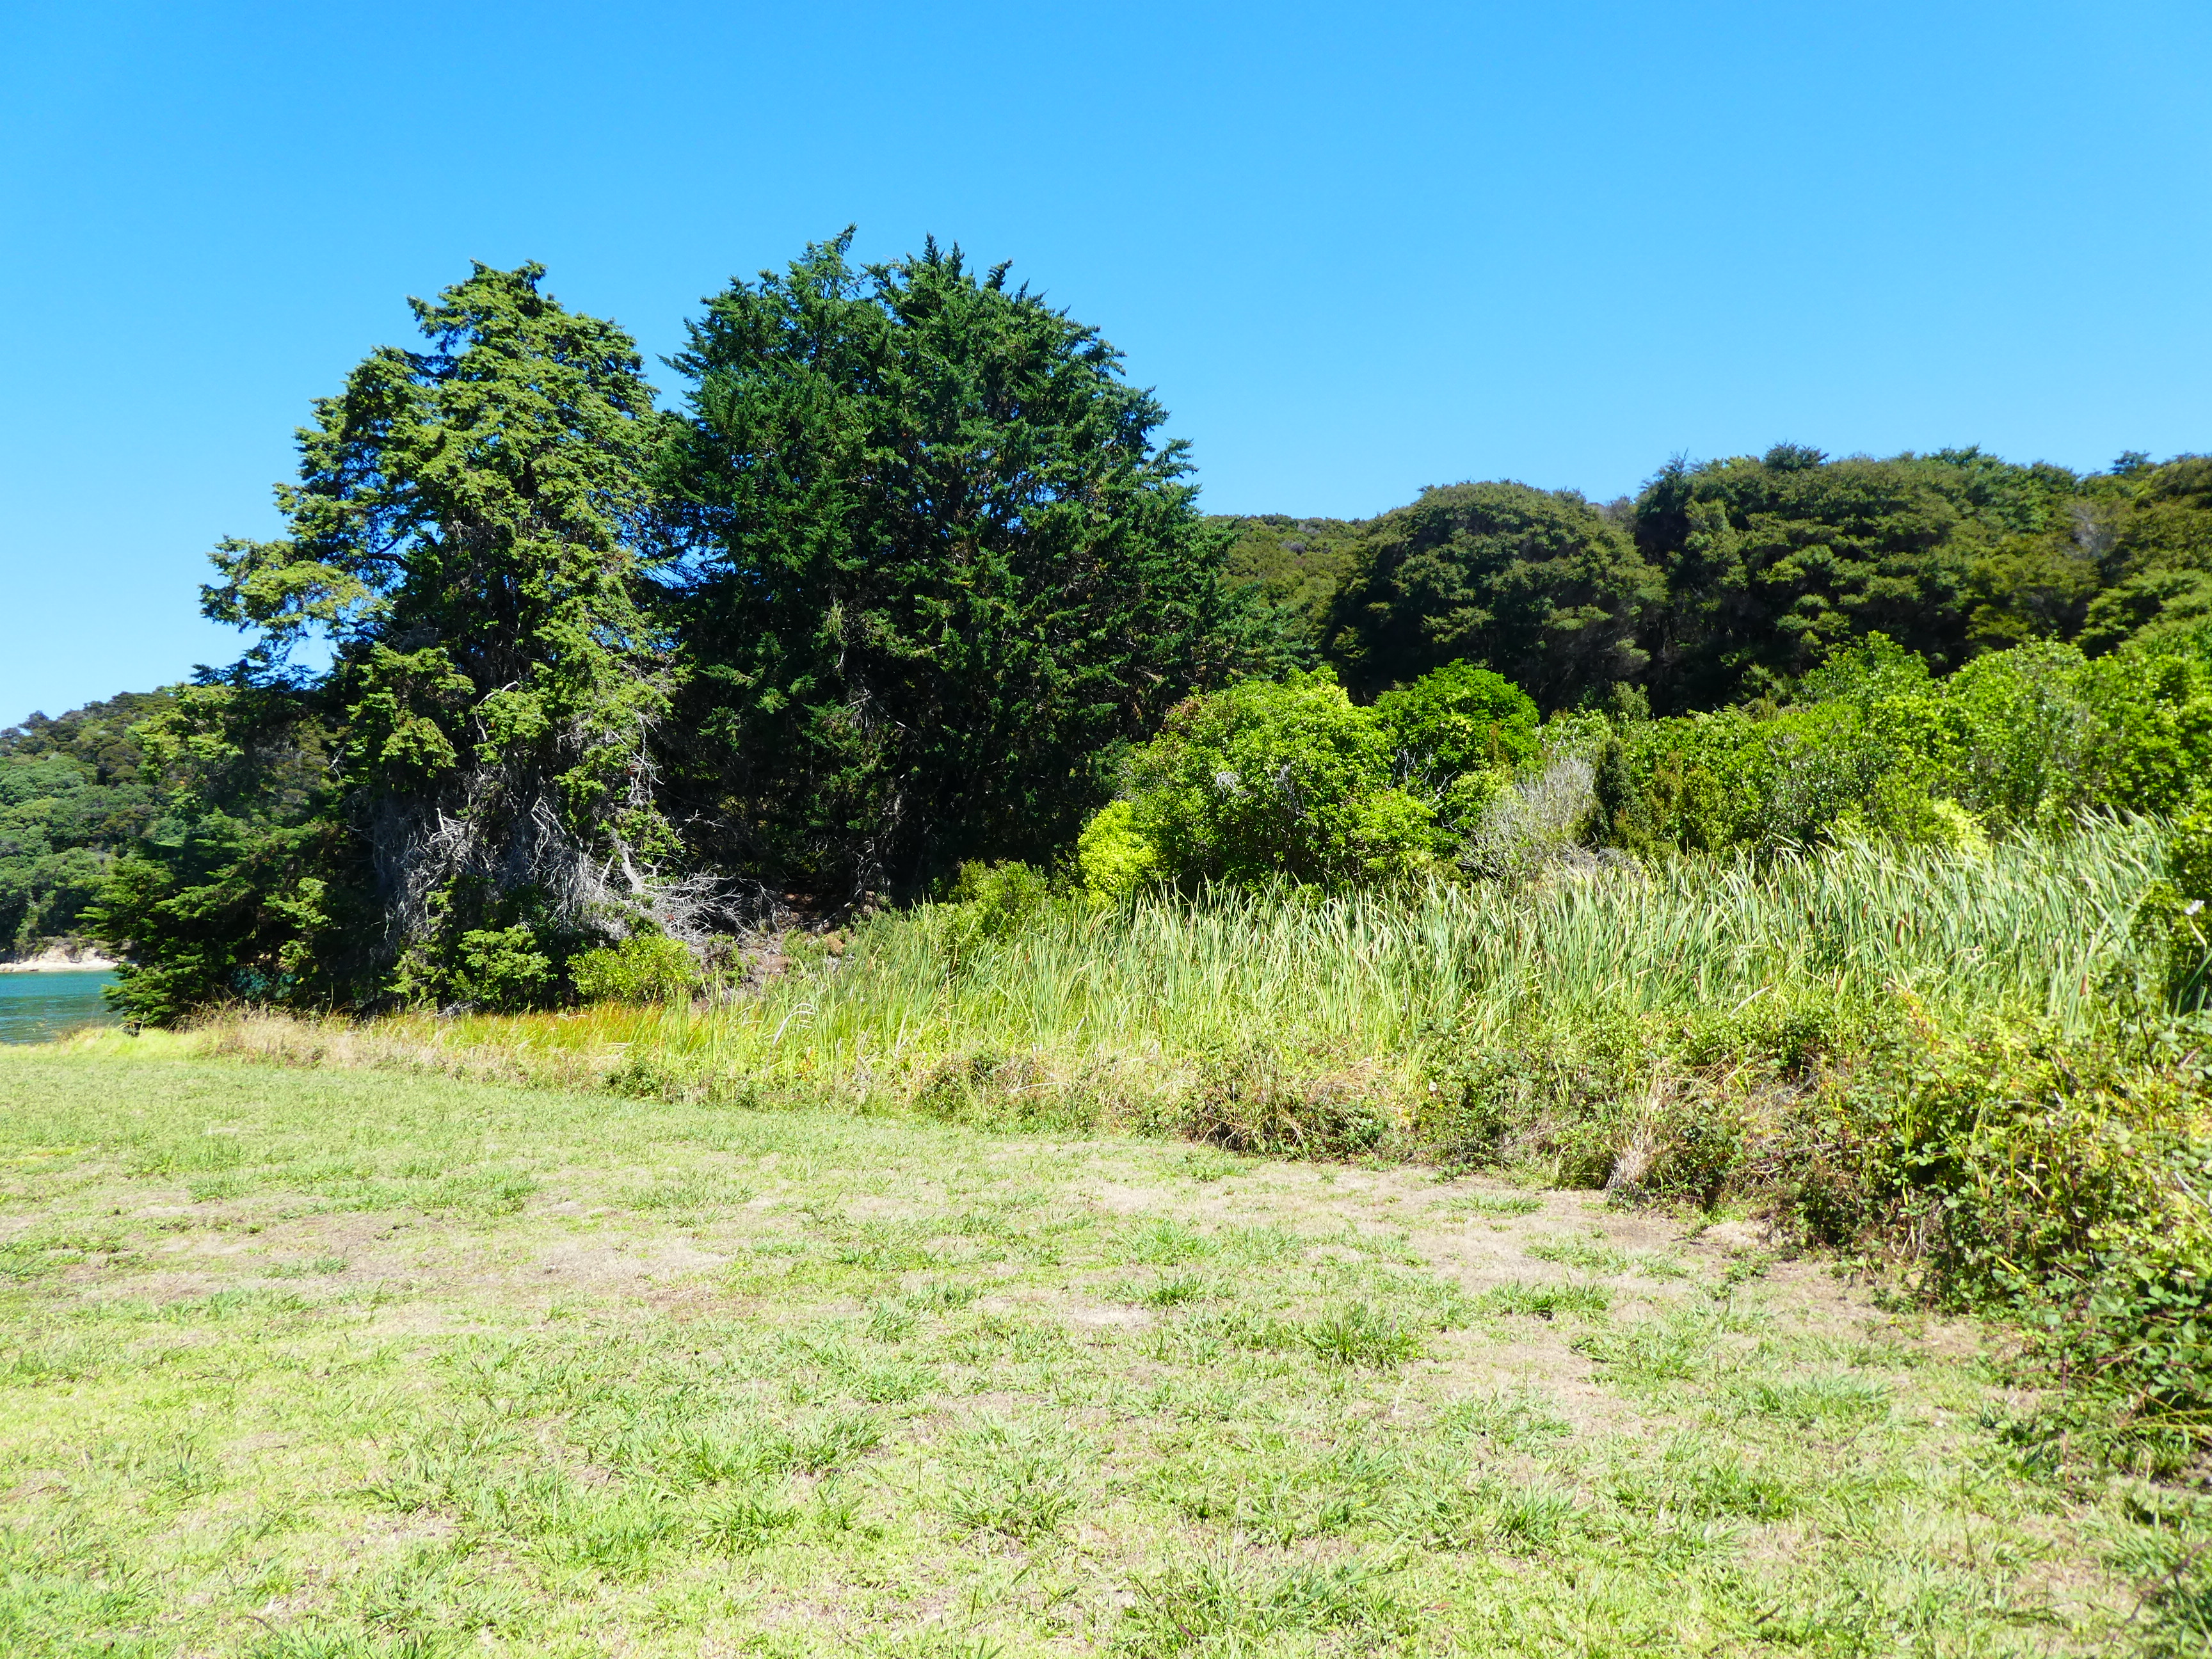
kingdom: Plantae
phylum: Tracheophyta
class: Pinopsida
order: Pinales
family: Cupressaceae
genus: Cupressus
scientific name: Cupressus torulosa
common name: Himalayan cypress
